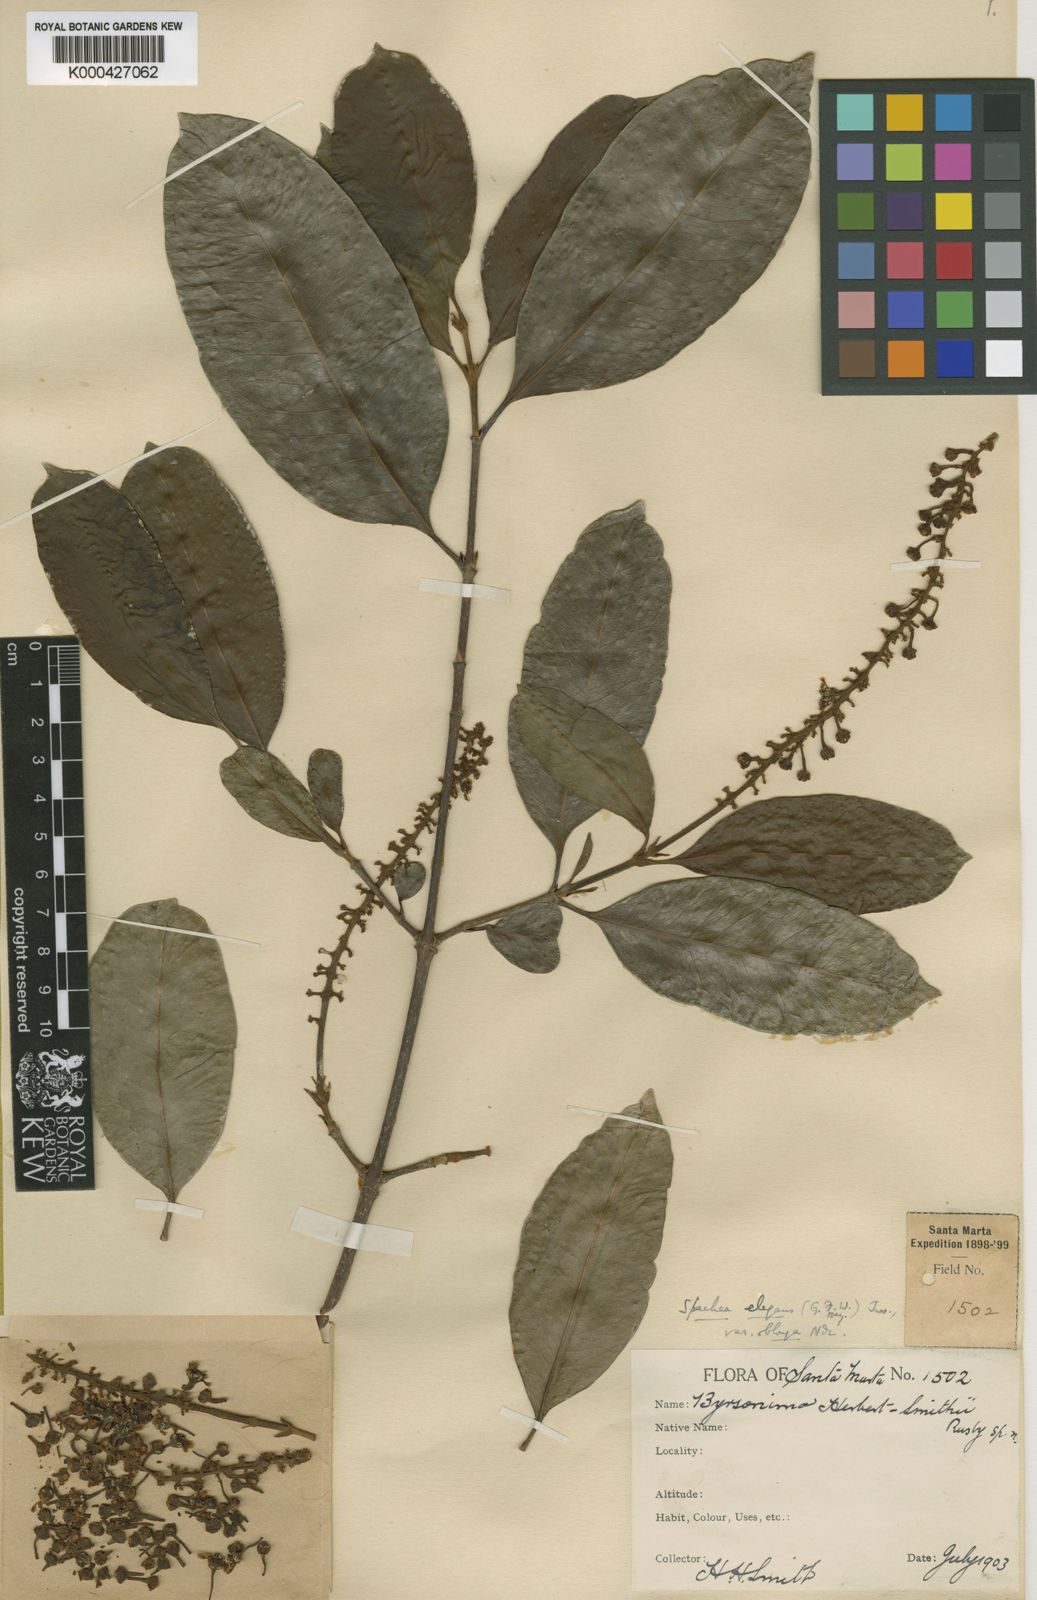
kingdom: Plantae
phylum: Tracheophyta
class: Magnoliopsida
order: Malpighiales
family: Malpighiaceae
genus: Spachea
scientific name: Spachea elegans
